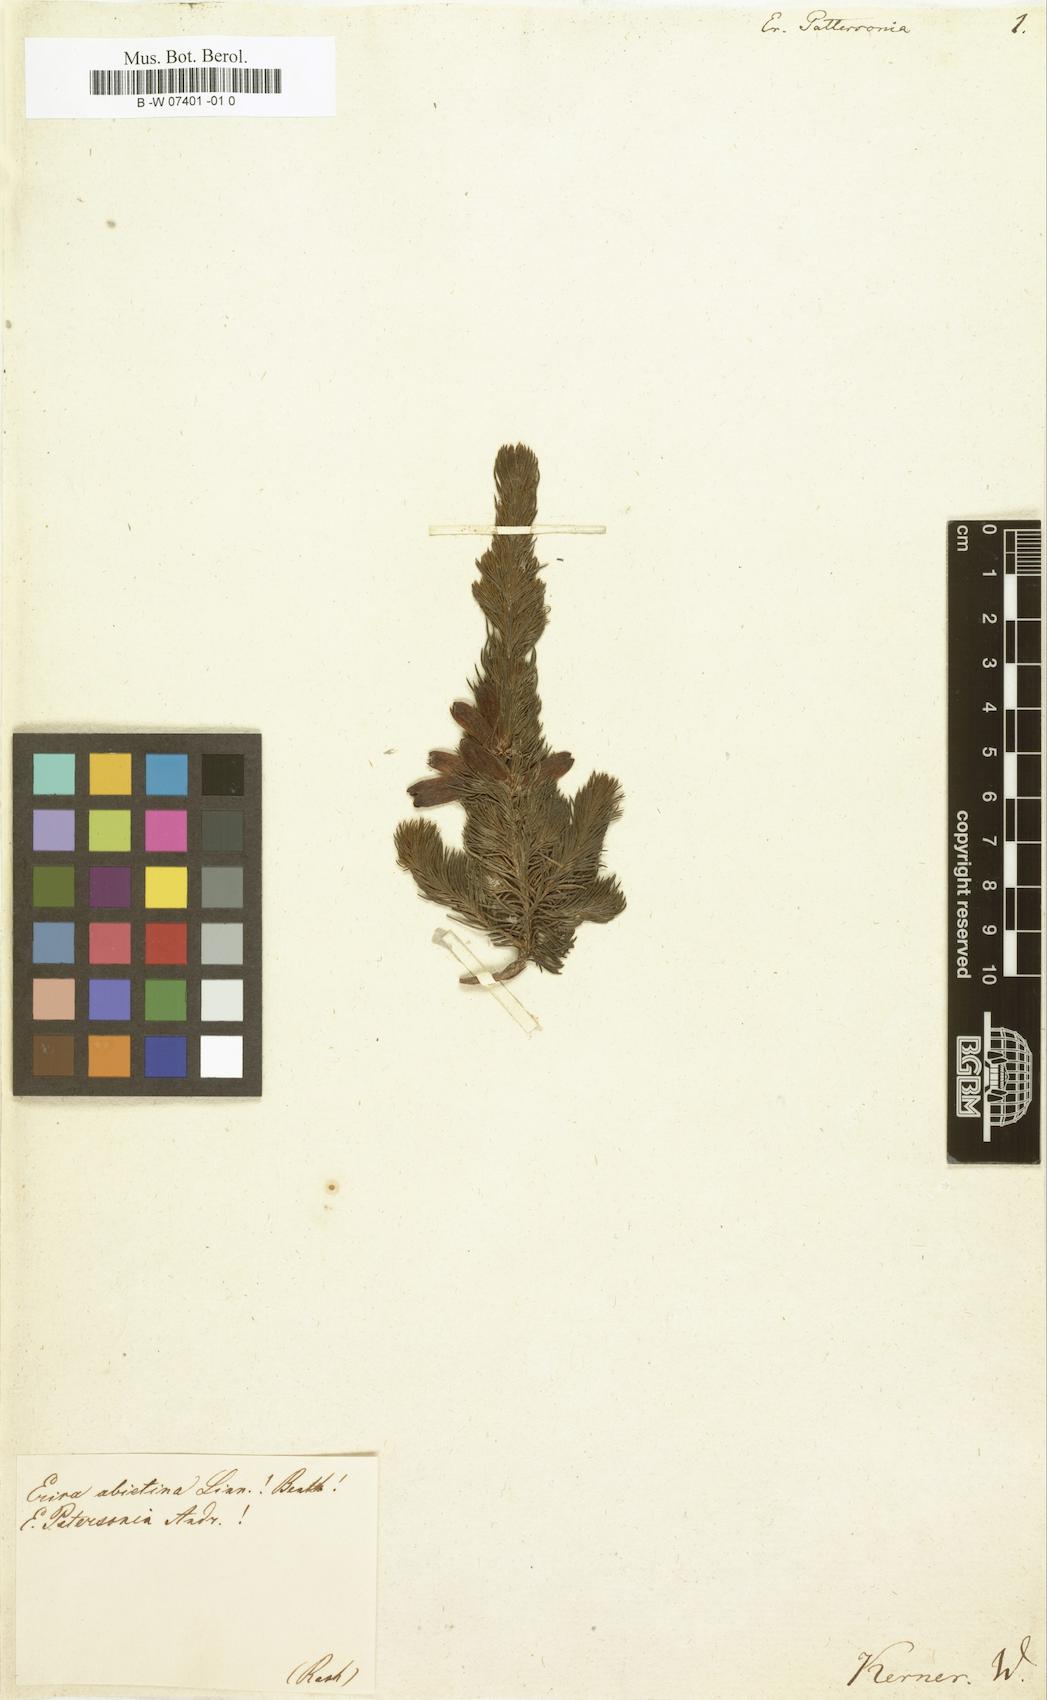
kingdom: Plantae
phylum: Tracheophyta
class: Magnoliopsida
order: Ericales
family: Ericaceae
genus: Erica
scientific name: Erica patersonia
